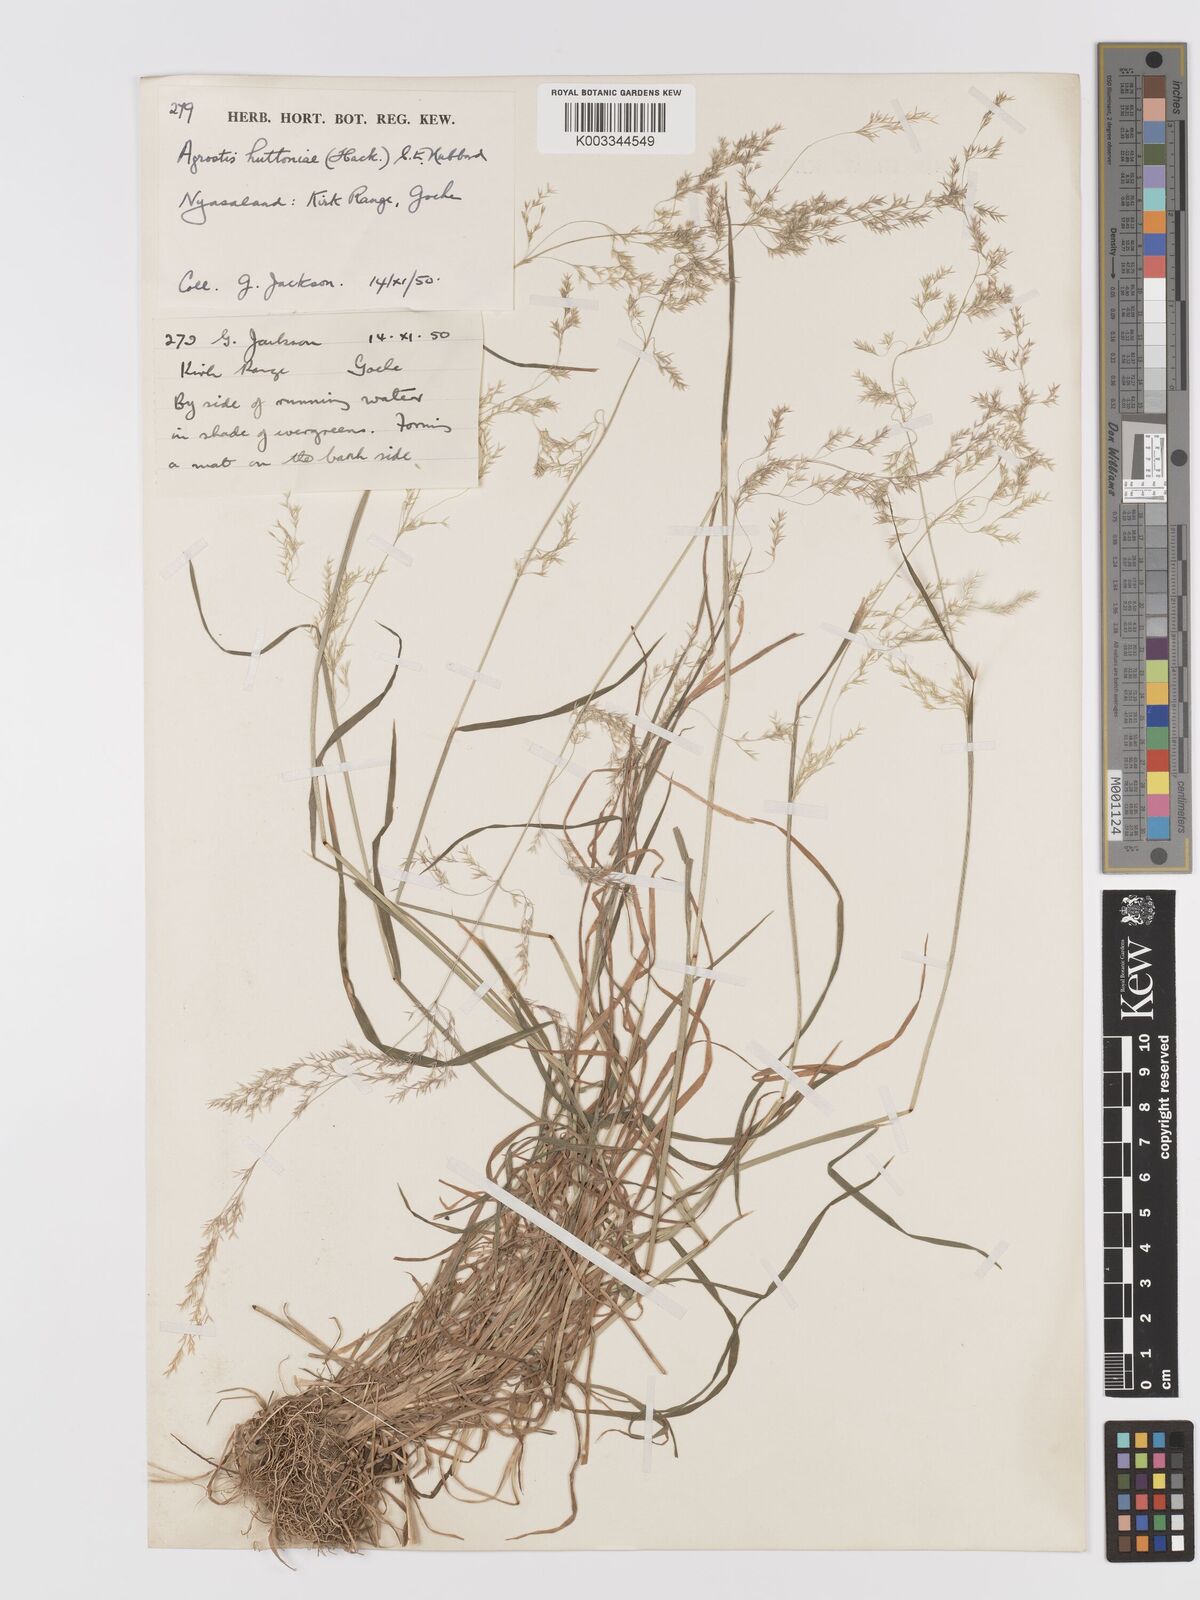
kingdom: Plantae
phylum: Tracheophyta
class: Liliopsida
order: Poales
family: Poaceae
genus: Lachnagrostis
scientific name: Lachnagrostis lachnantha
